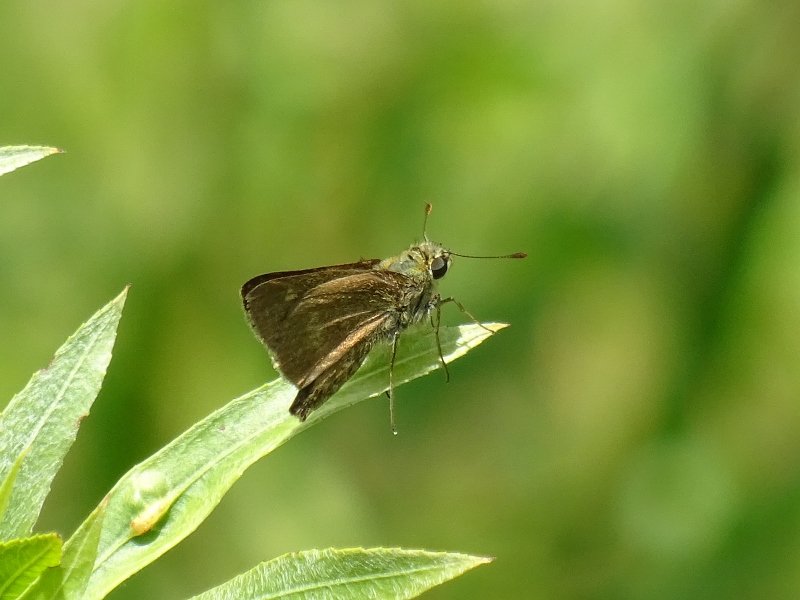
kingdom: Animalia
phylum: Arthropoda
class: Insecta
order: Lepidoptera
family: Hesperiidae
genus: Polites
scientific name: Polites egeremet
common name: Northern Broken-Dash
